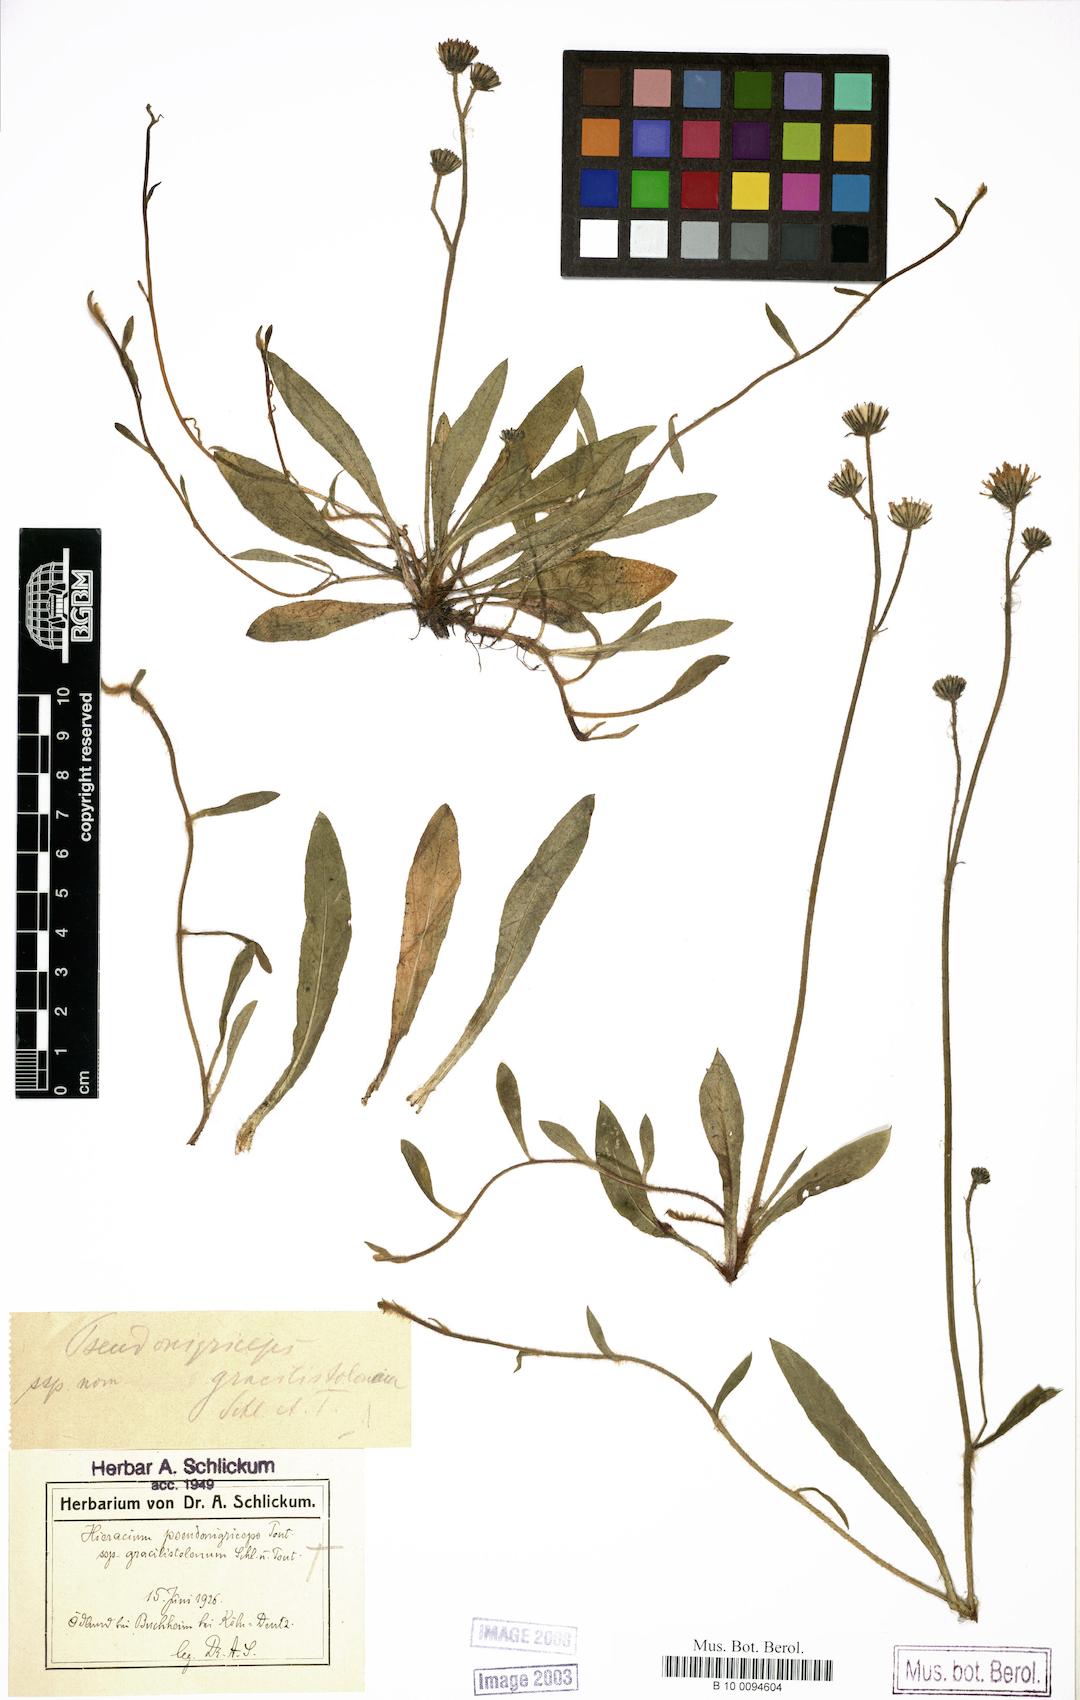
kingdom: Plantae
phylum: Tracheophyta
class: Magnoliopsida
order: Asterales
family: Asteraceae
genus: Hieracium
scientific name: Hieracium
